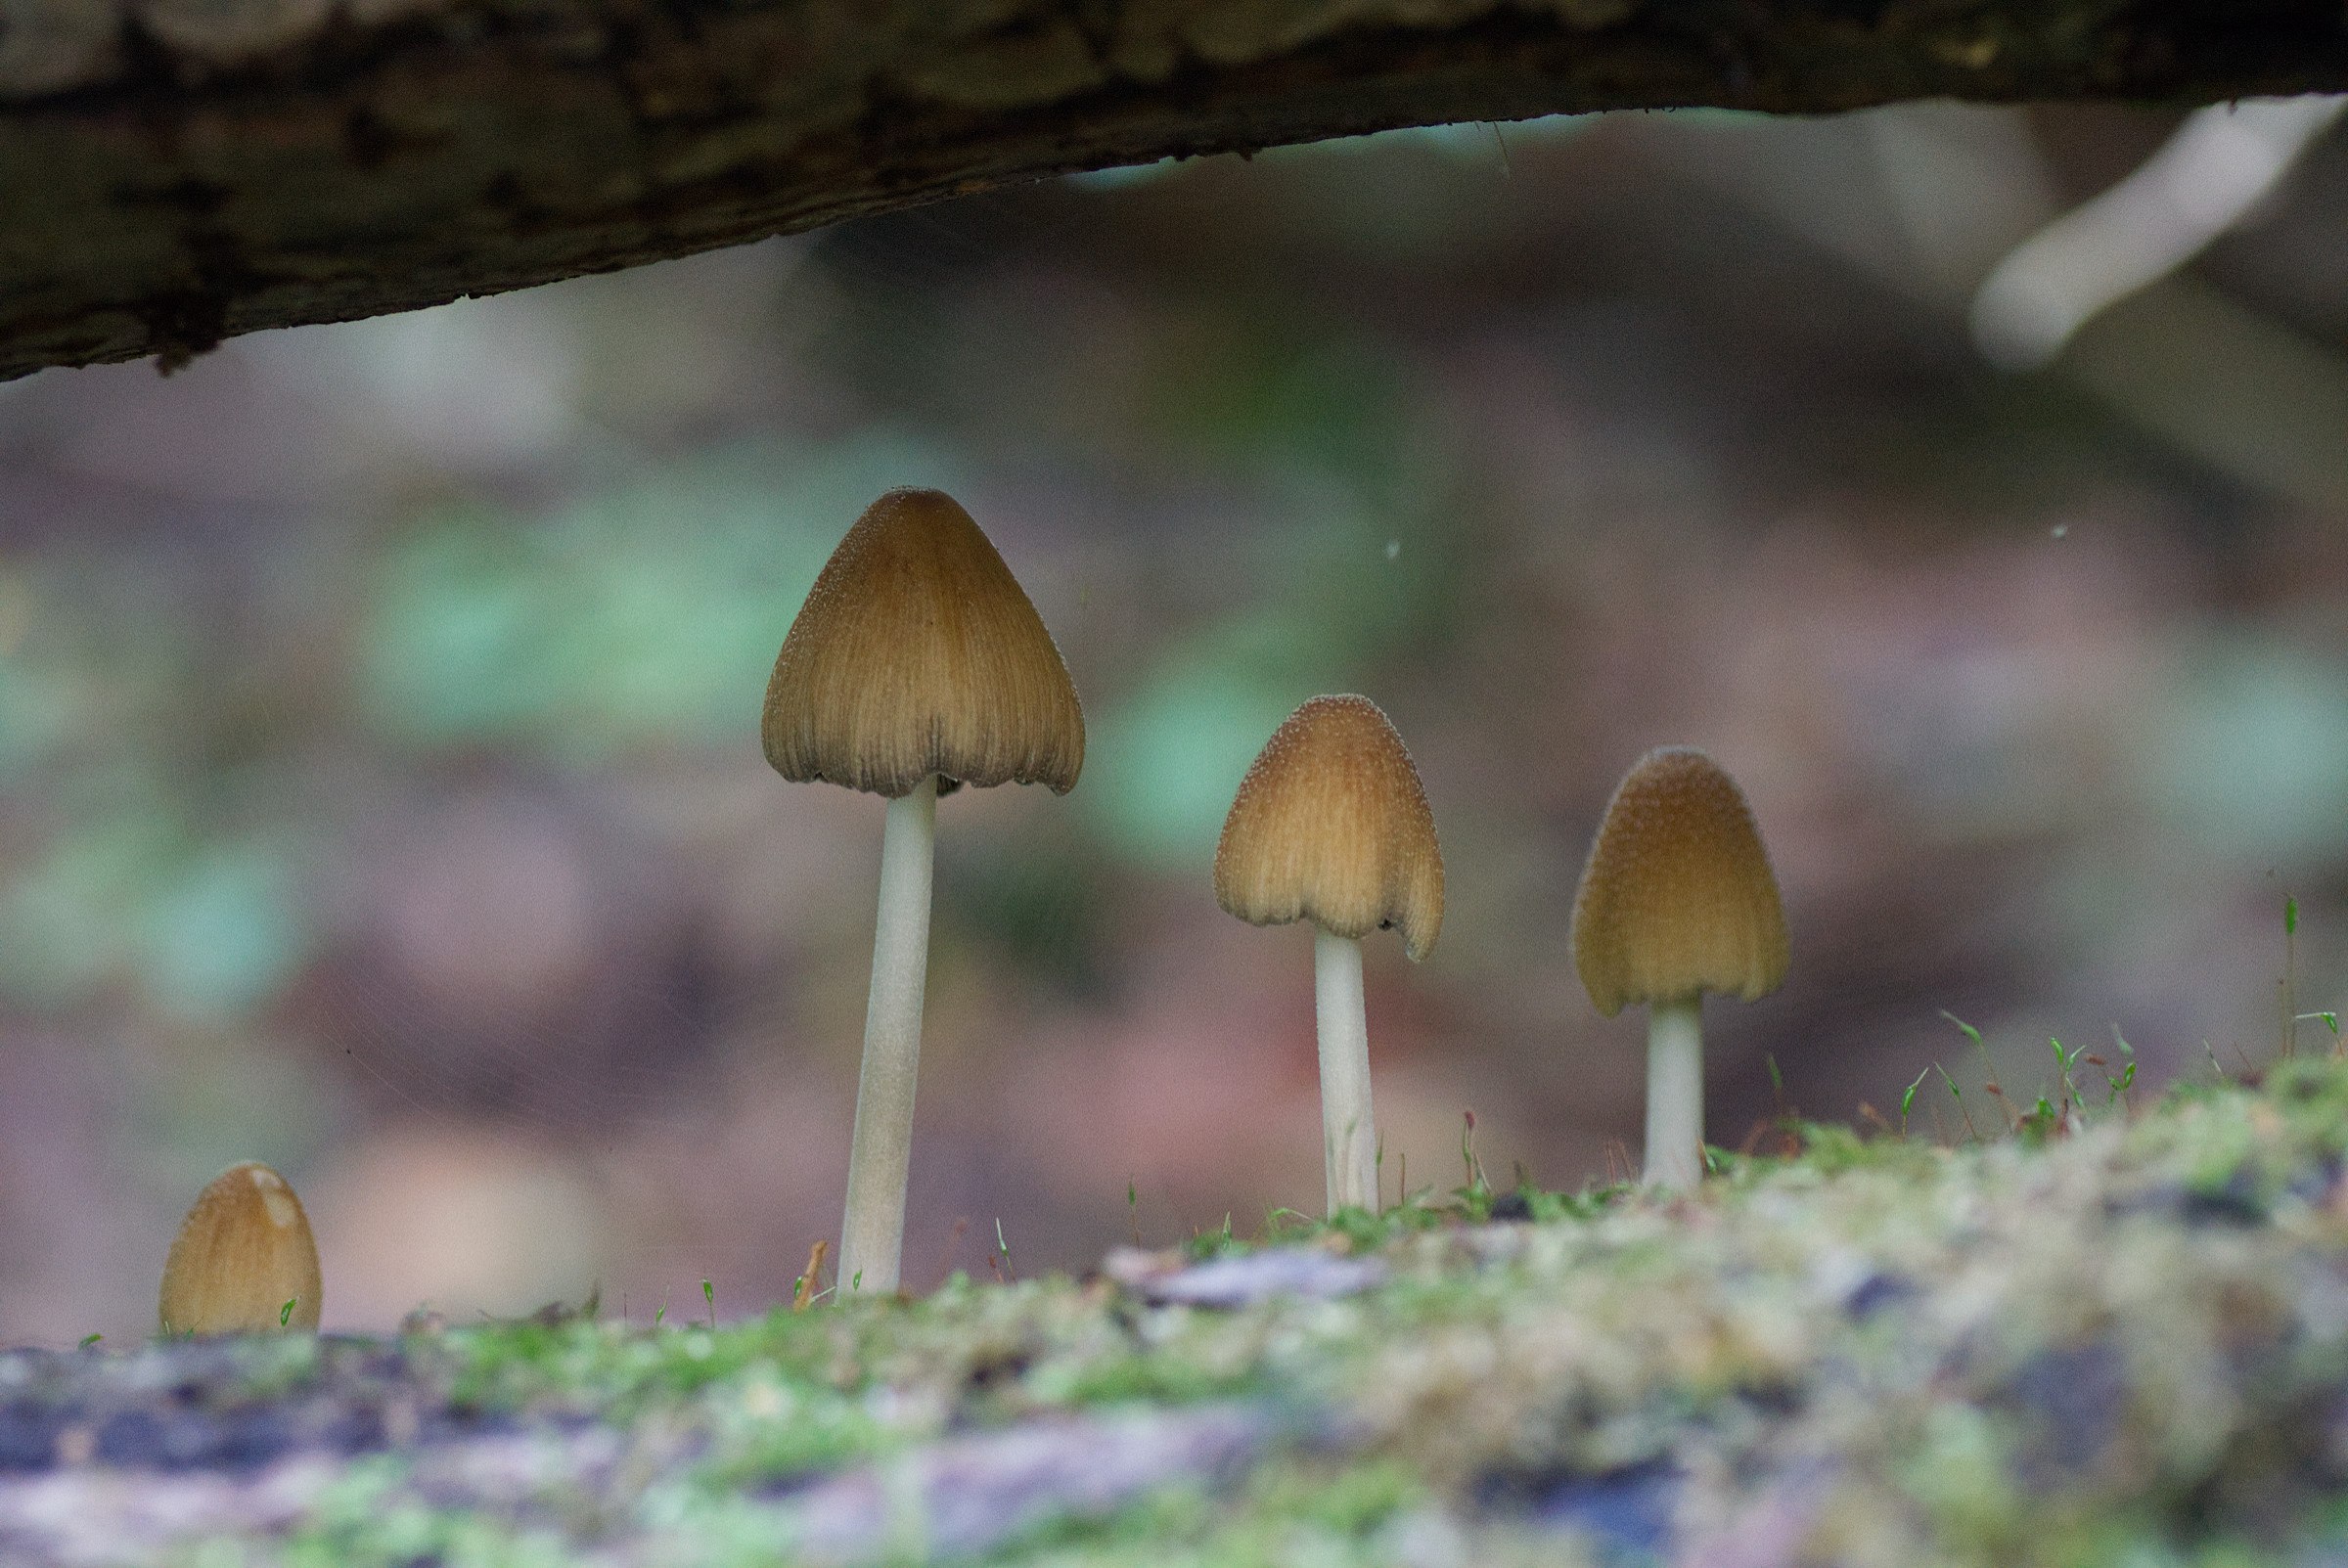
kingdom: Fungi
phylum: Basidiomycota
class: Agaricomycetes
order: Agaricales
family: Psathyrellaceae
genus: Coprinellus
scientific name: Coprinellus micaceus
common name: glimmer-blækhat
